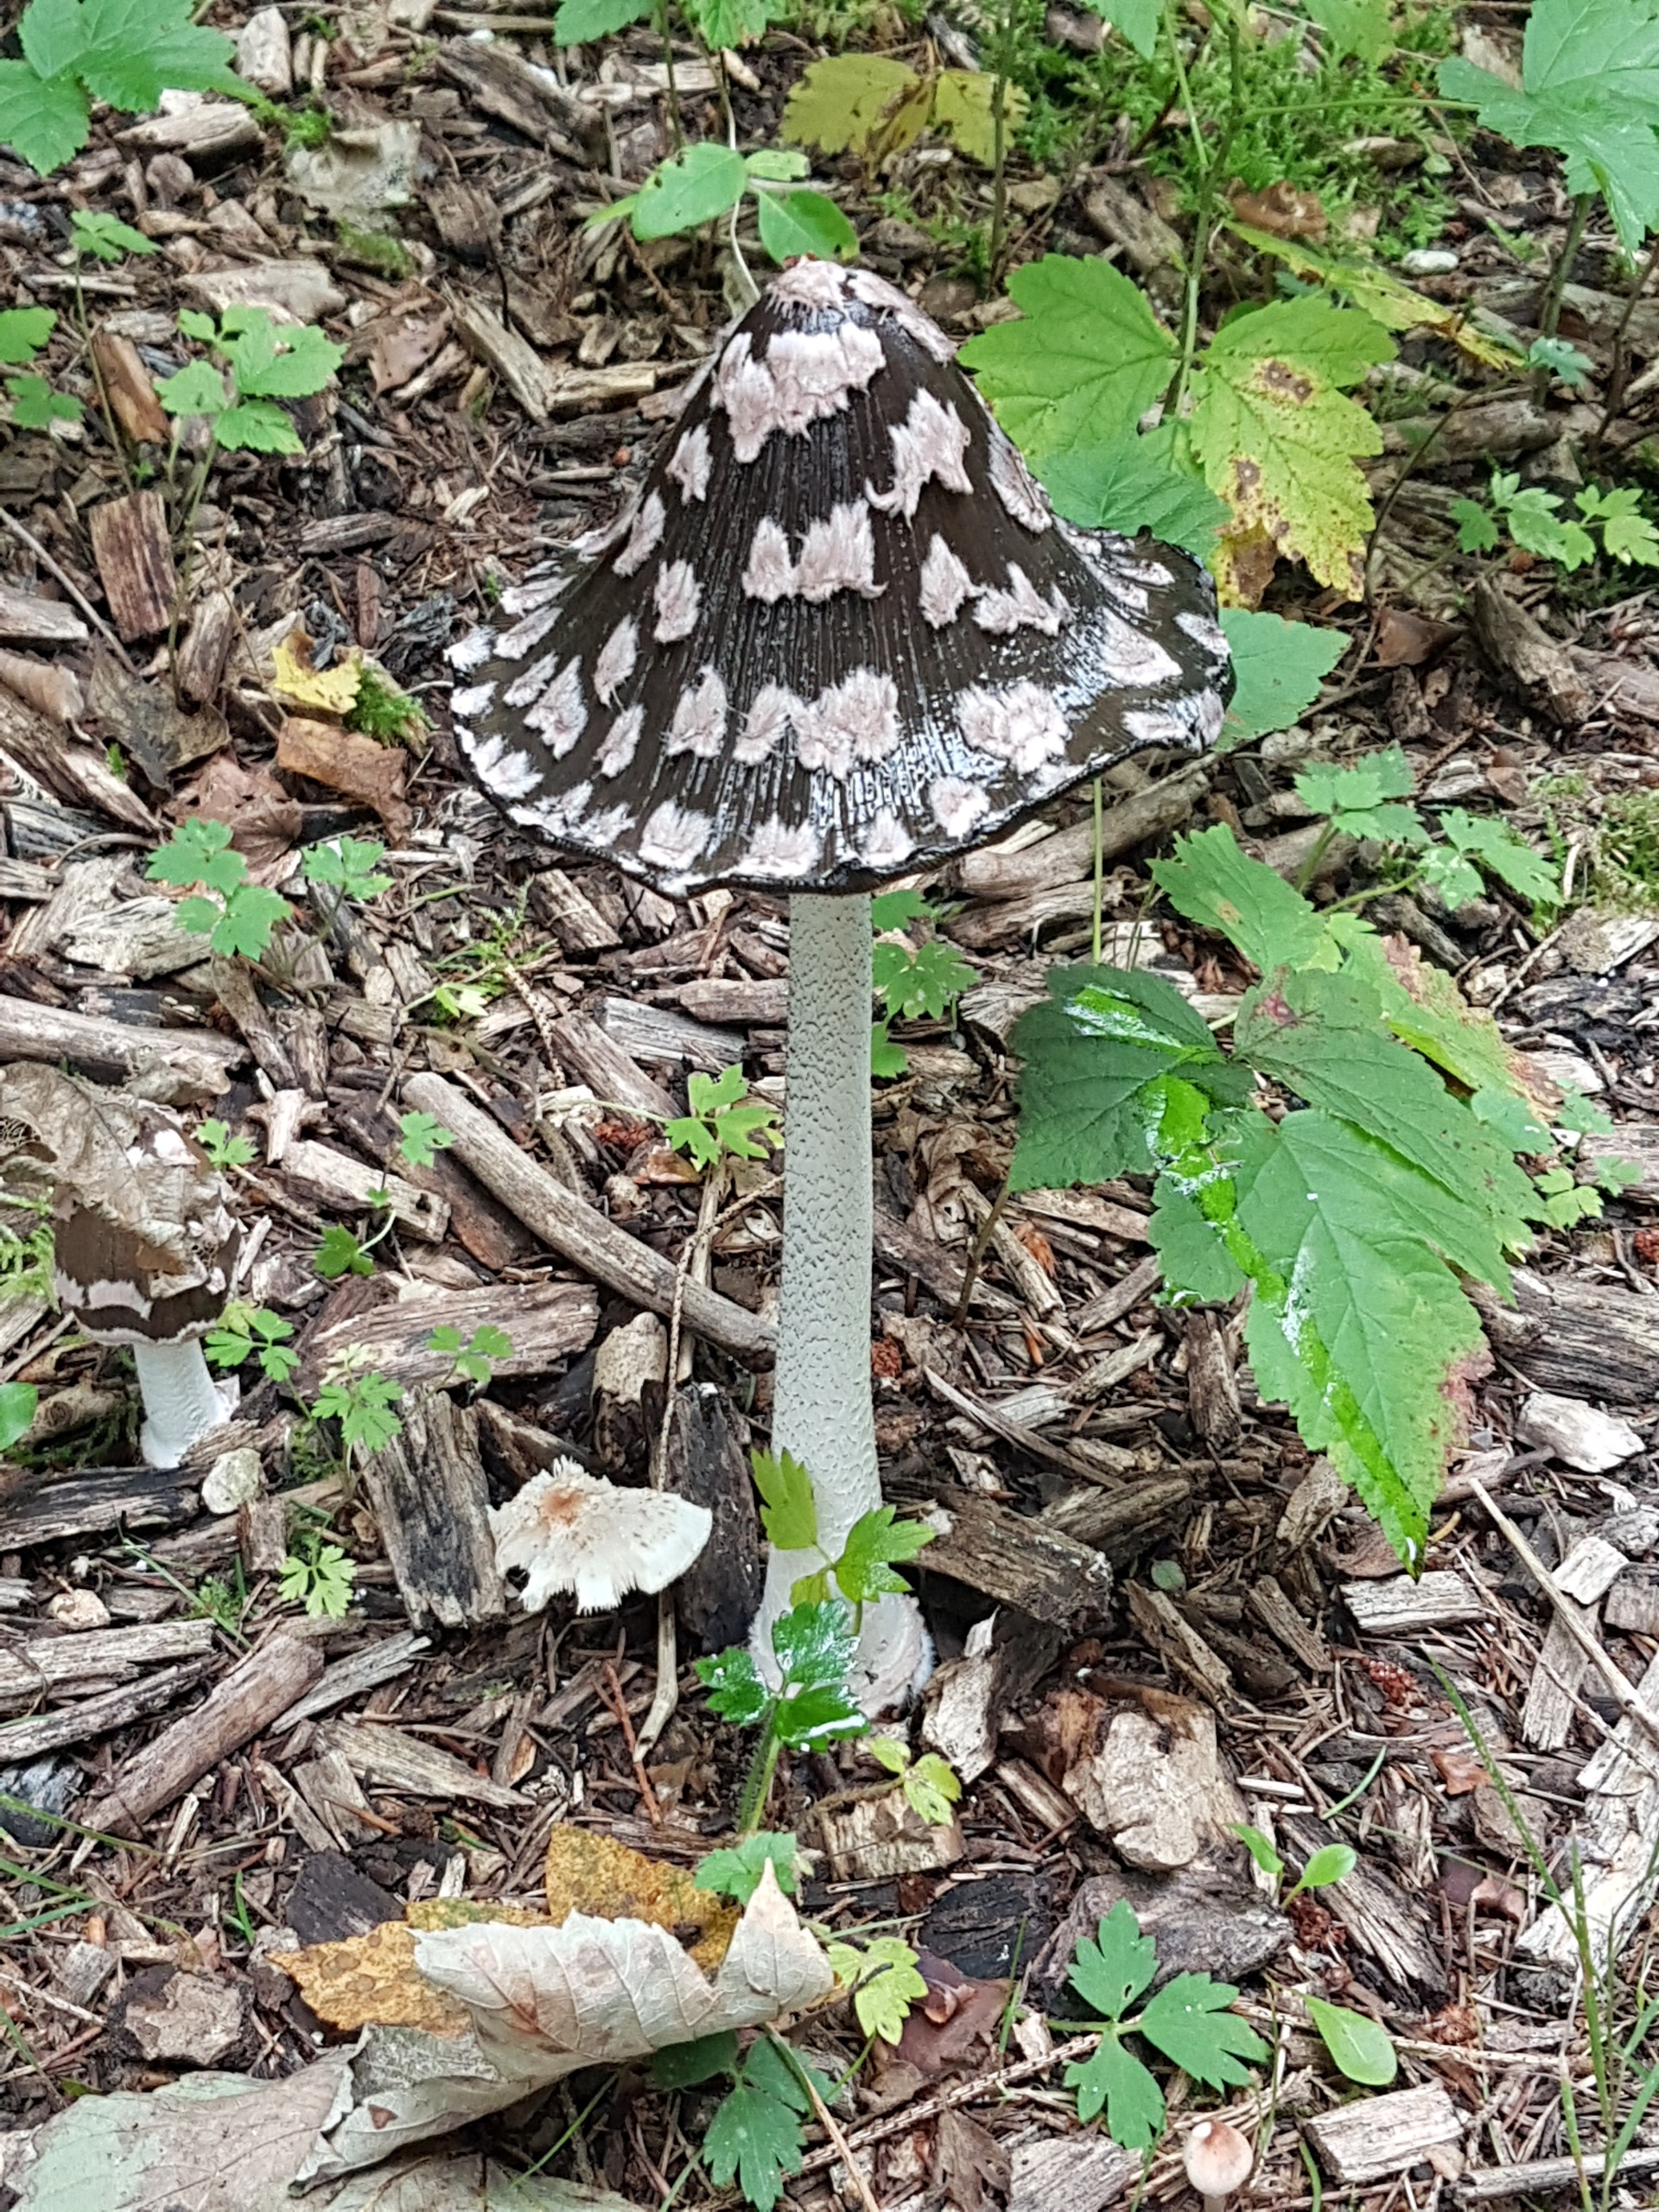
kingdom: Fungi
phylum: Basidiomycota
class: Agaricomycetes
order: Agaricales
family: Psathyrellaceae
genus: Coprinopsis
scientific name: Coprinopsis picacea
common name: Skade-blækhat
